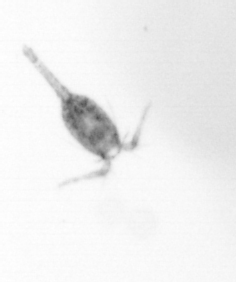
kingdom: Animalia
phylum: Arthropoda
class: Copepoda
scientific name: Copepoda
